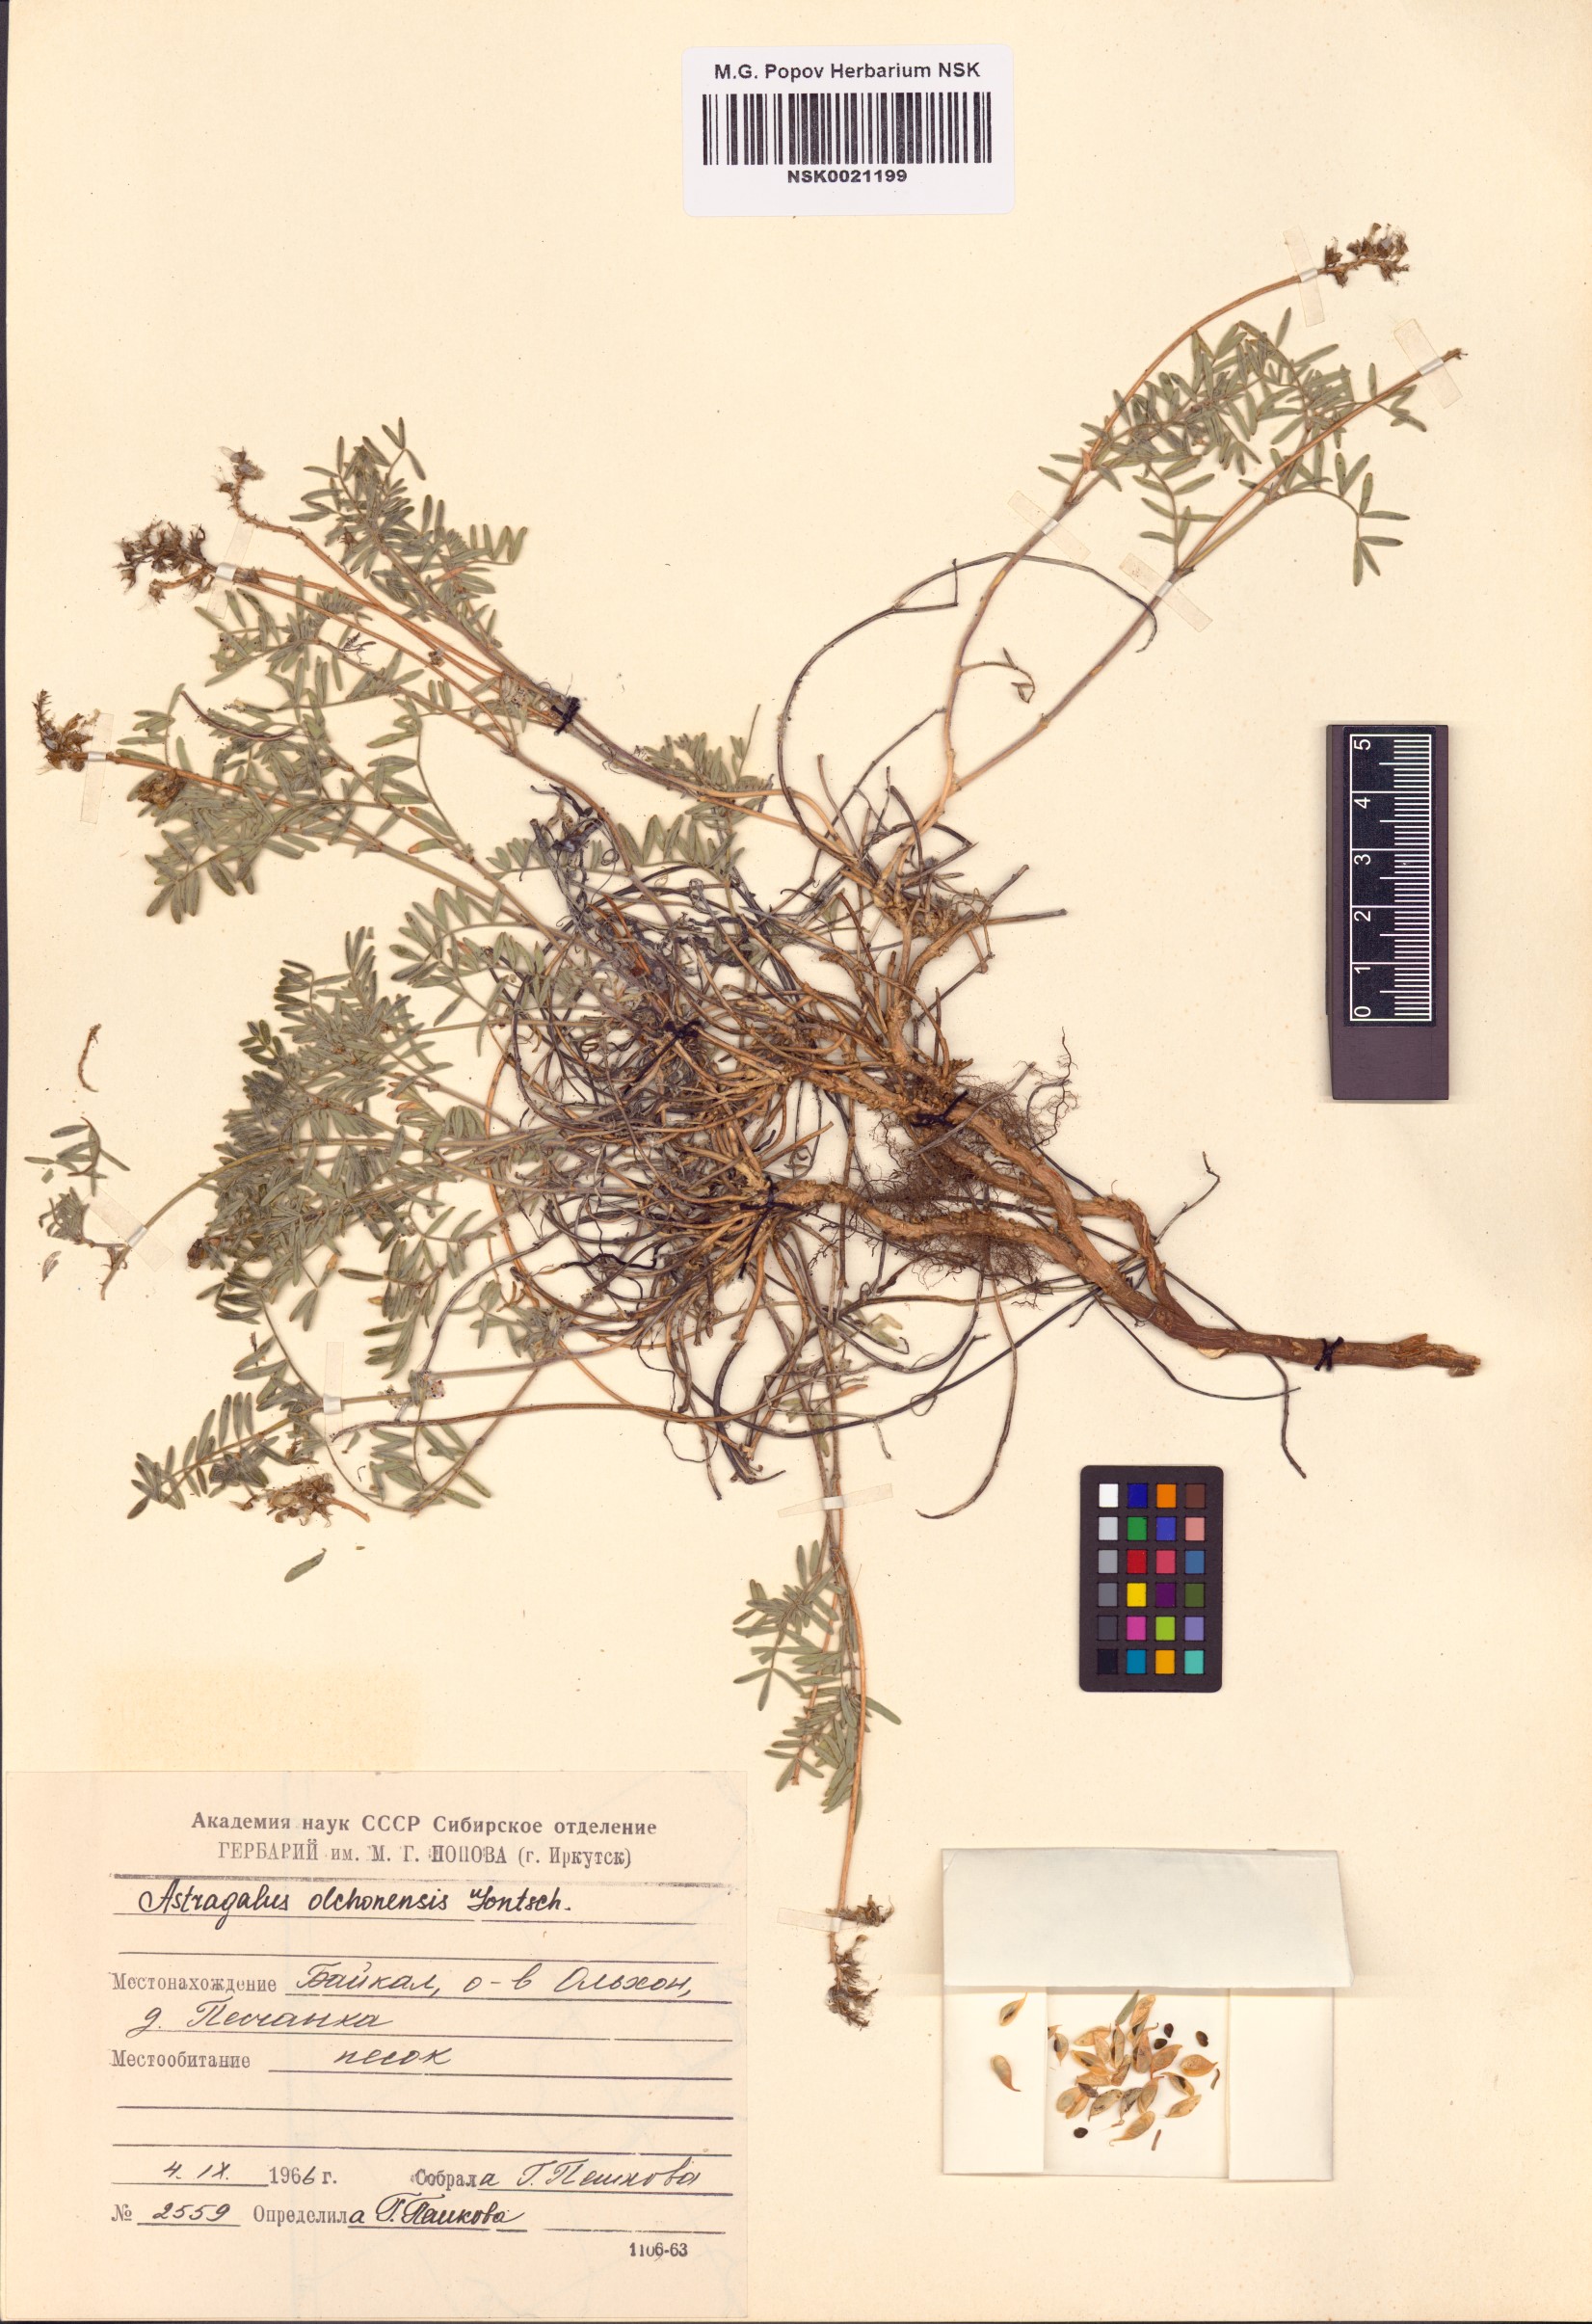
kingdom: Plantae
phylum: Tracheophyta
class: Magnoliopsida
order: Fabales
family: Fabaceae
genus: Astragalus
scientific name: Astragalus olchonensis
